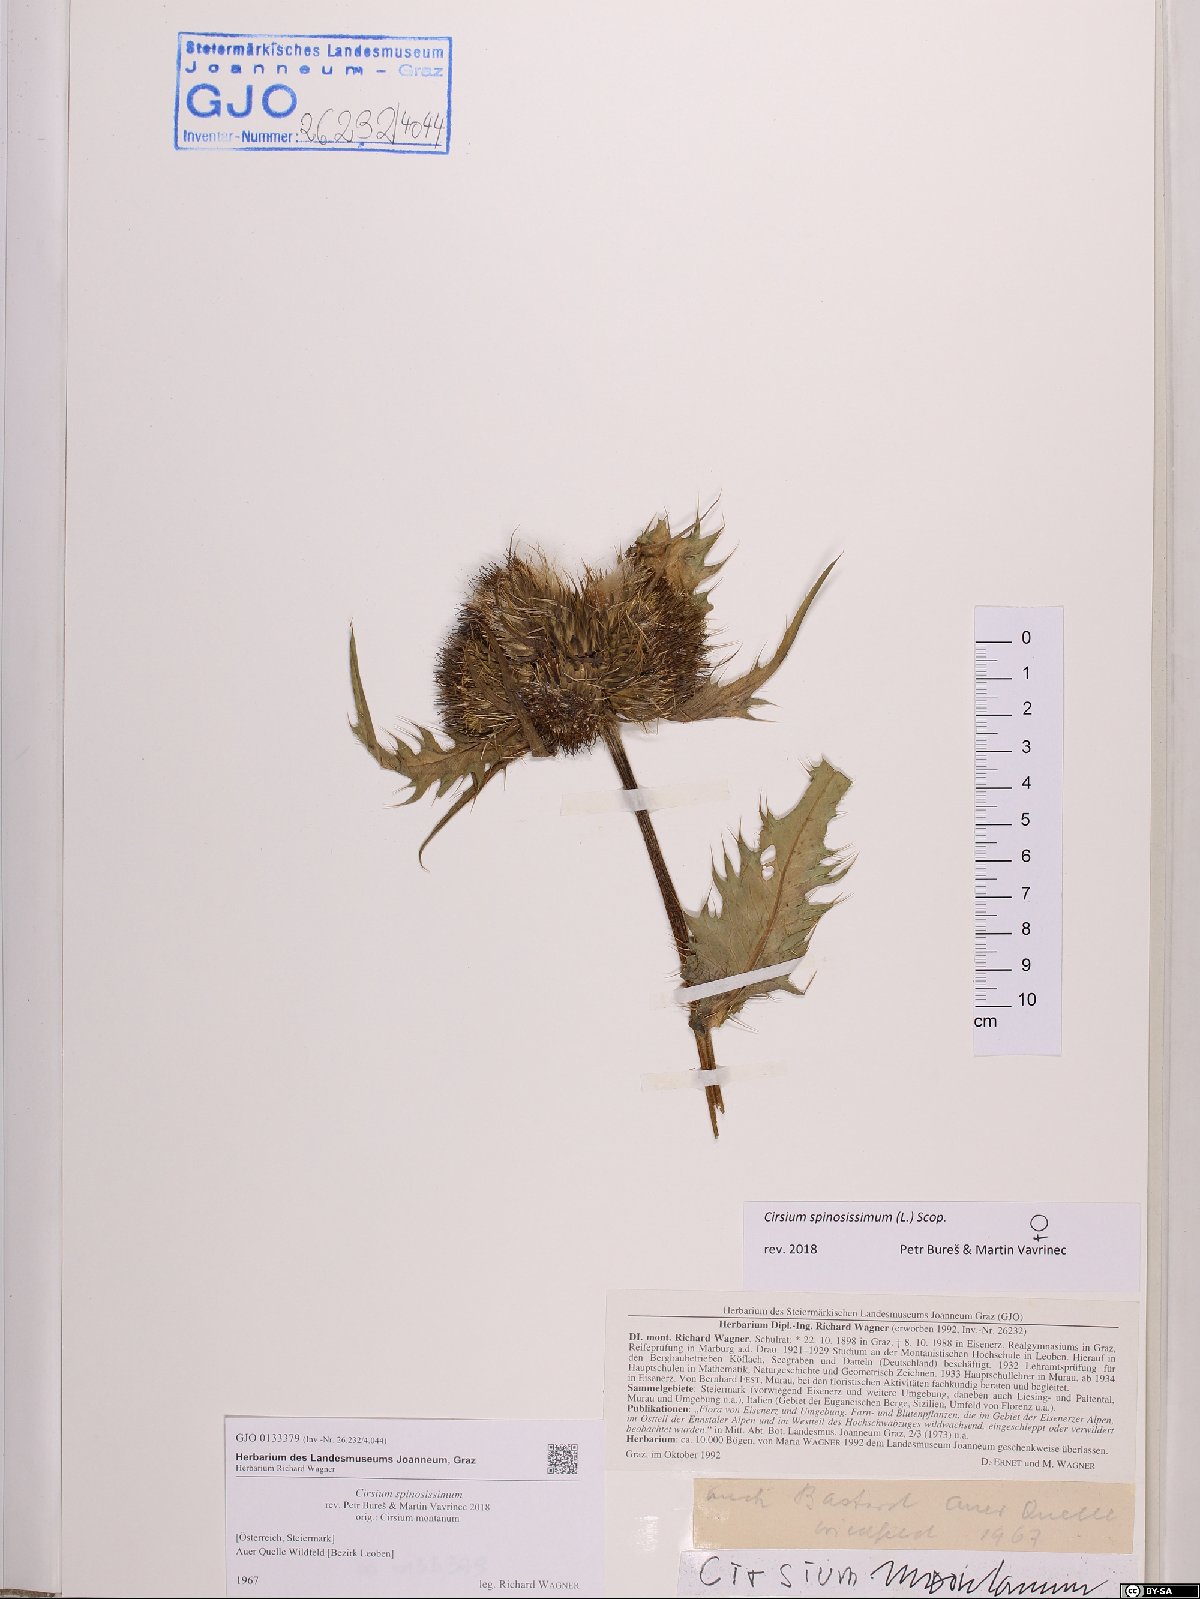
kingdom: Plantae
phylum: Tracheophyta
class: Magnoliopsida
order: Asterales
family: Asteraceae
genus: Cirsium
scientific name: Cirsium spinosissimum
